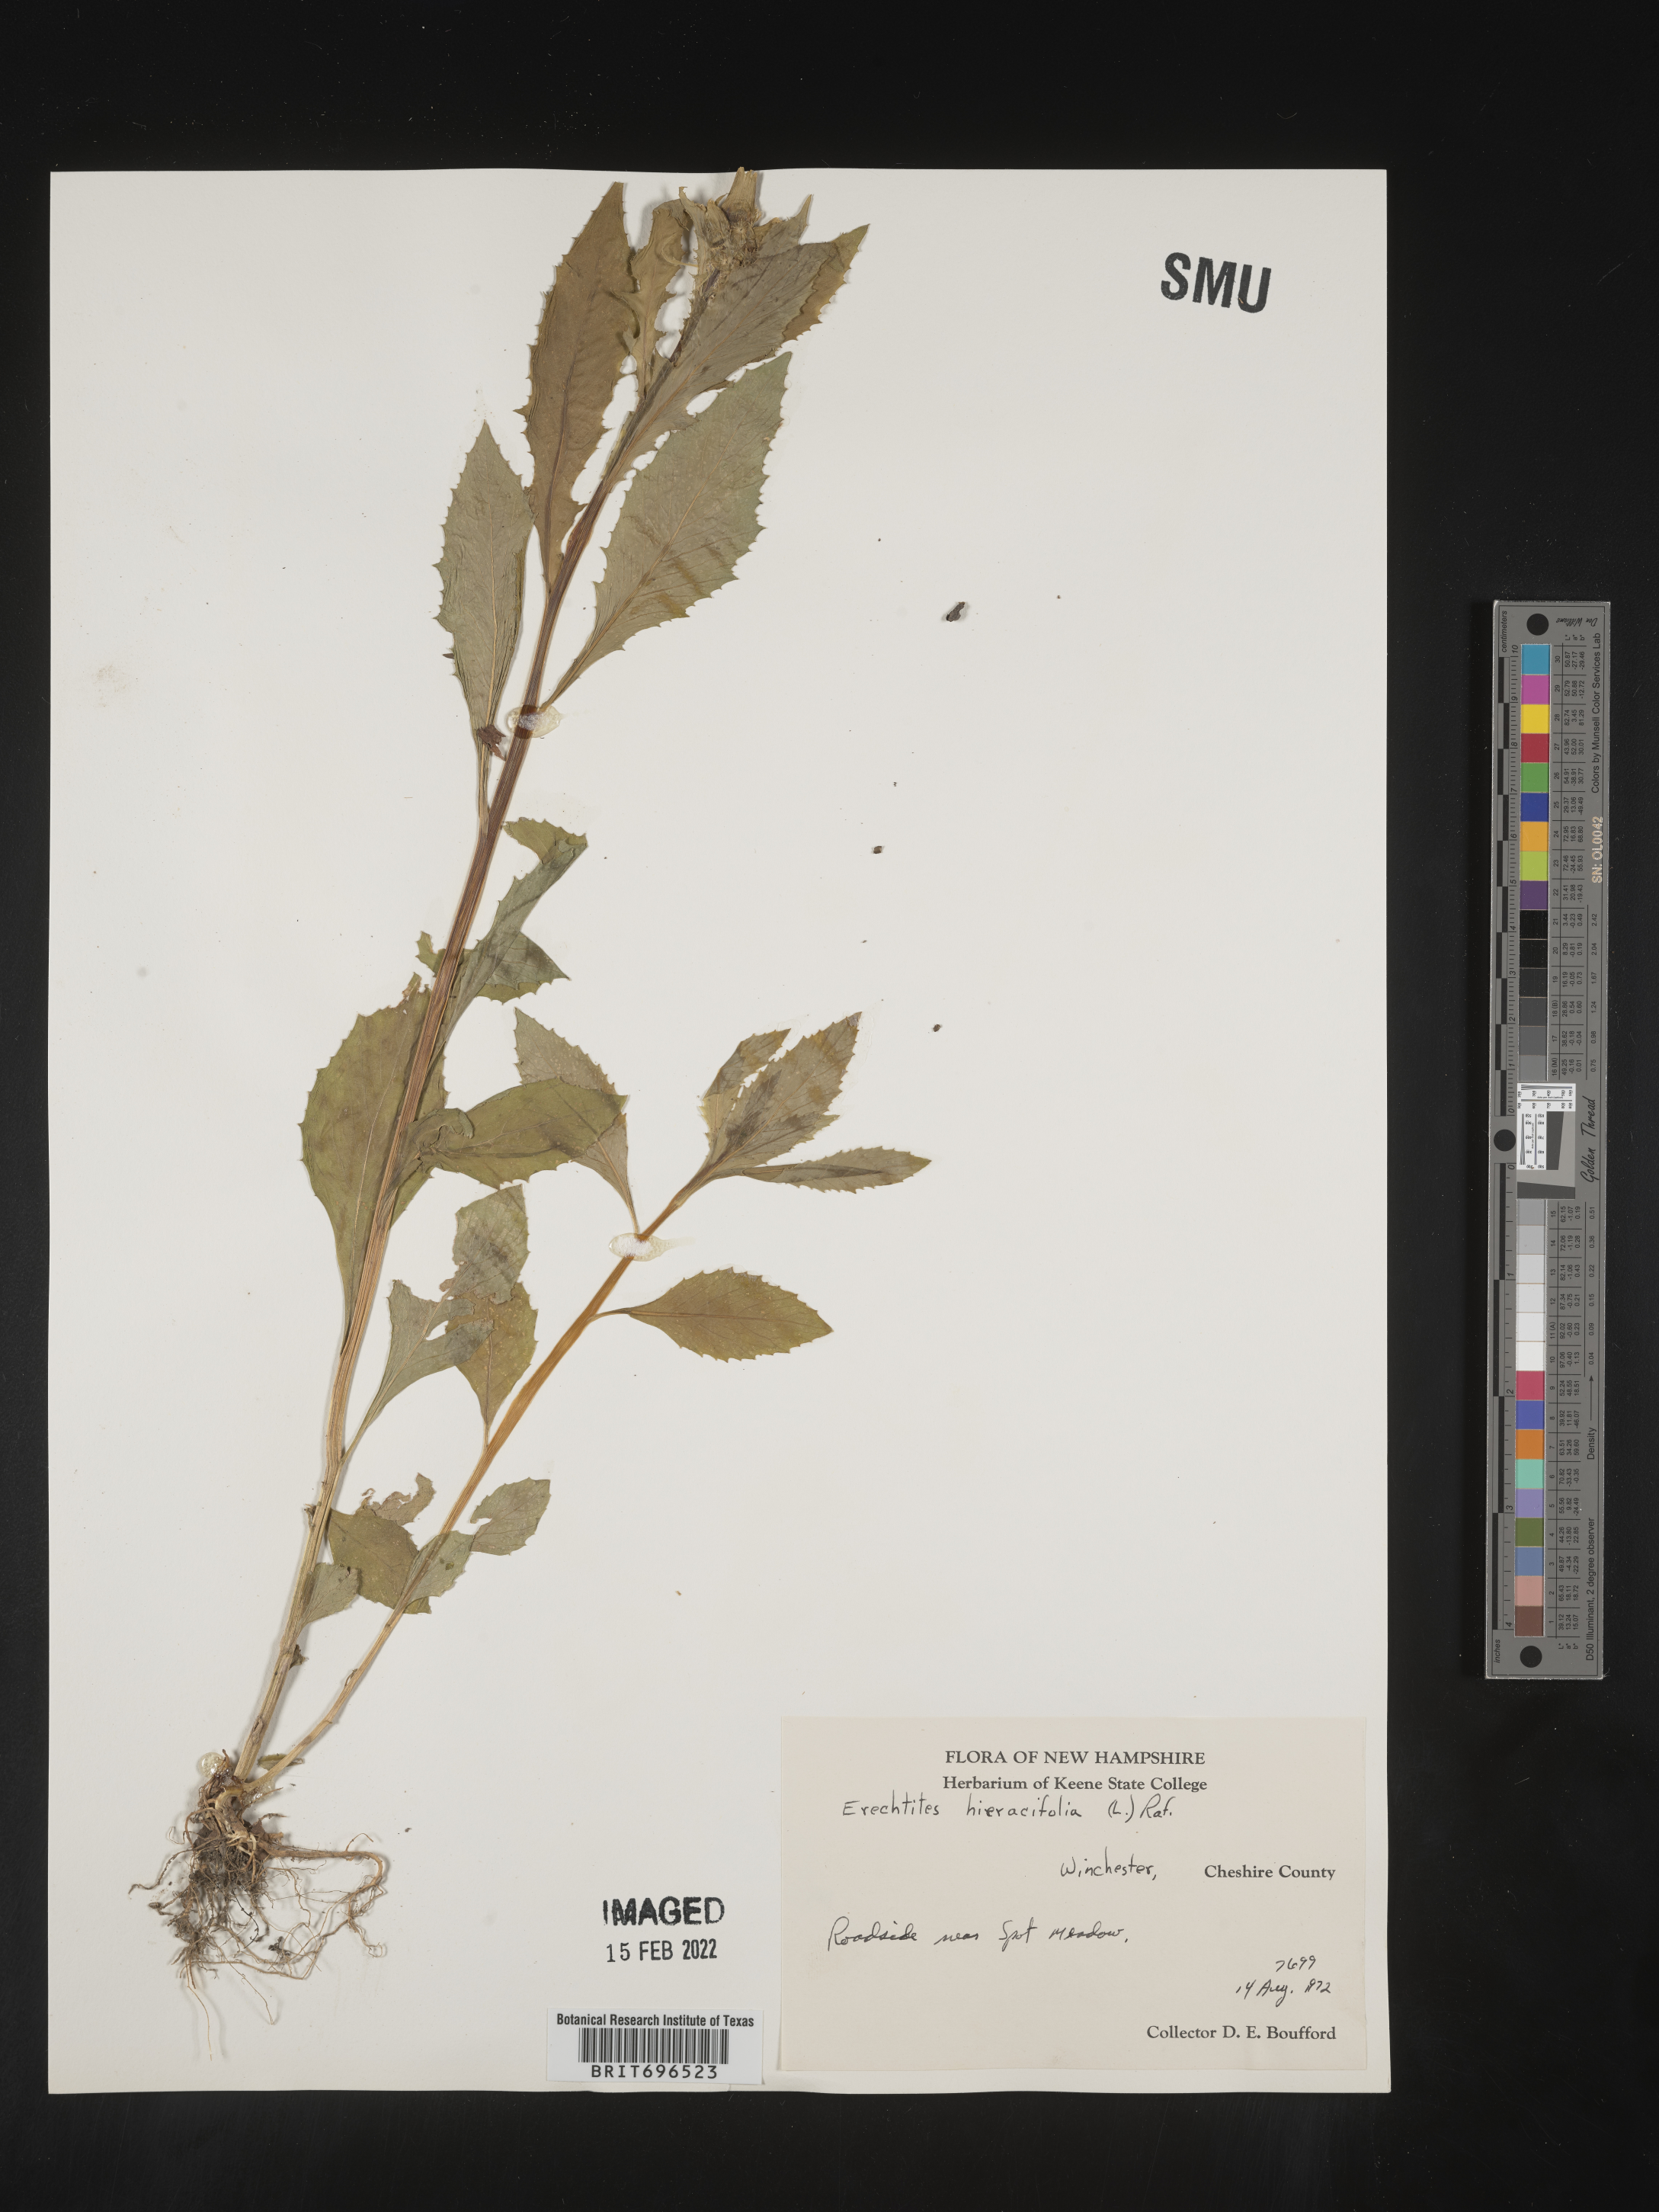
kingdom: Plantae
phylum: Tracheophyta
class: Magnoliopsida
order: Asterales
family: Asteraceae
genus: Erechtites
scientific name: Erechtites hieraciifolius
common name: American burnweed
